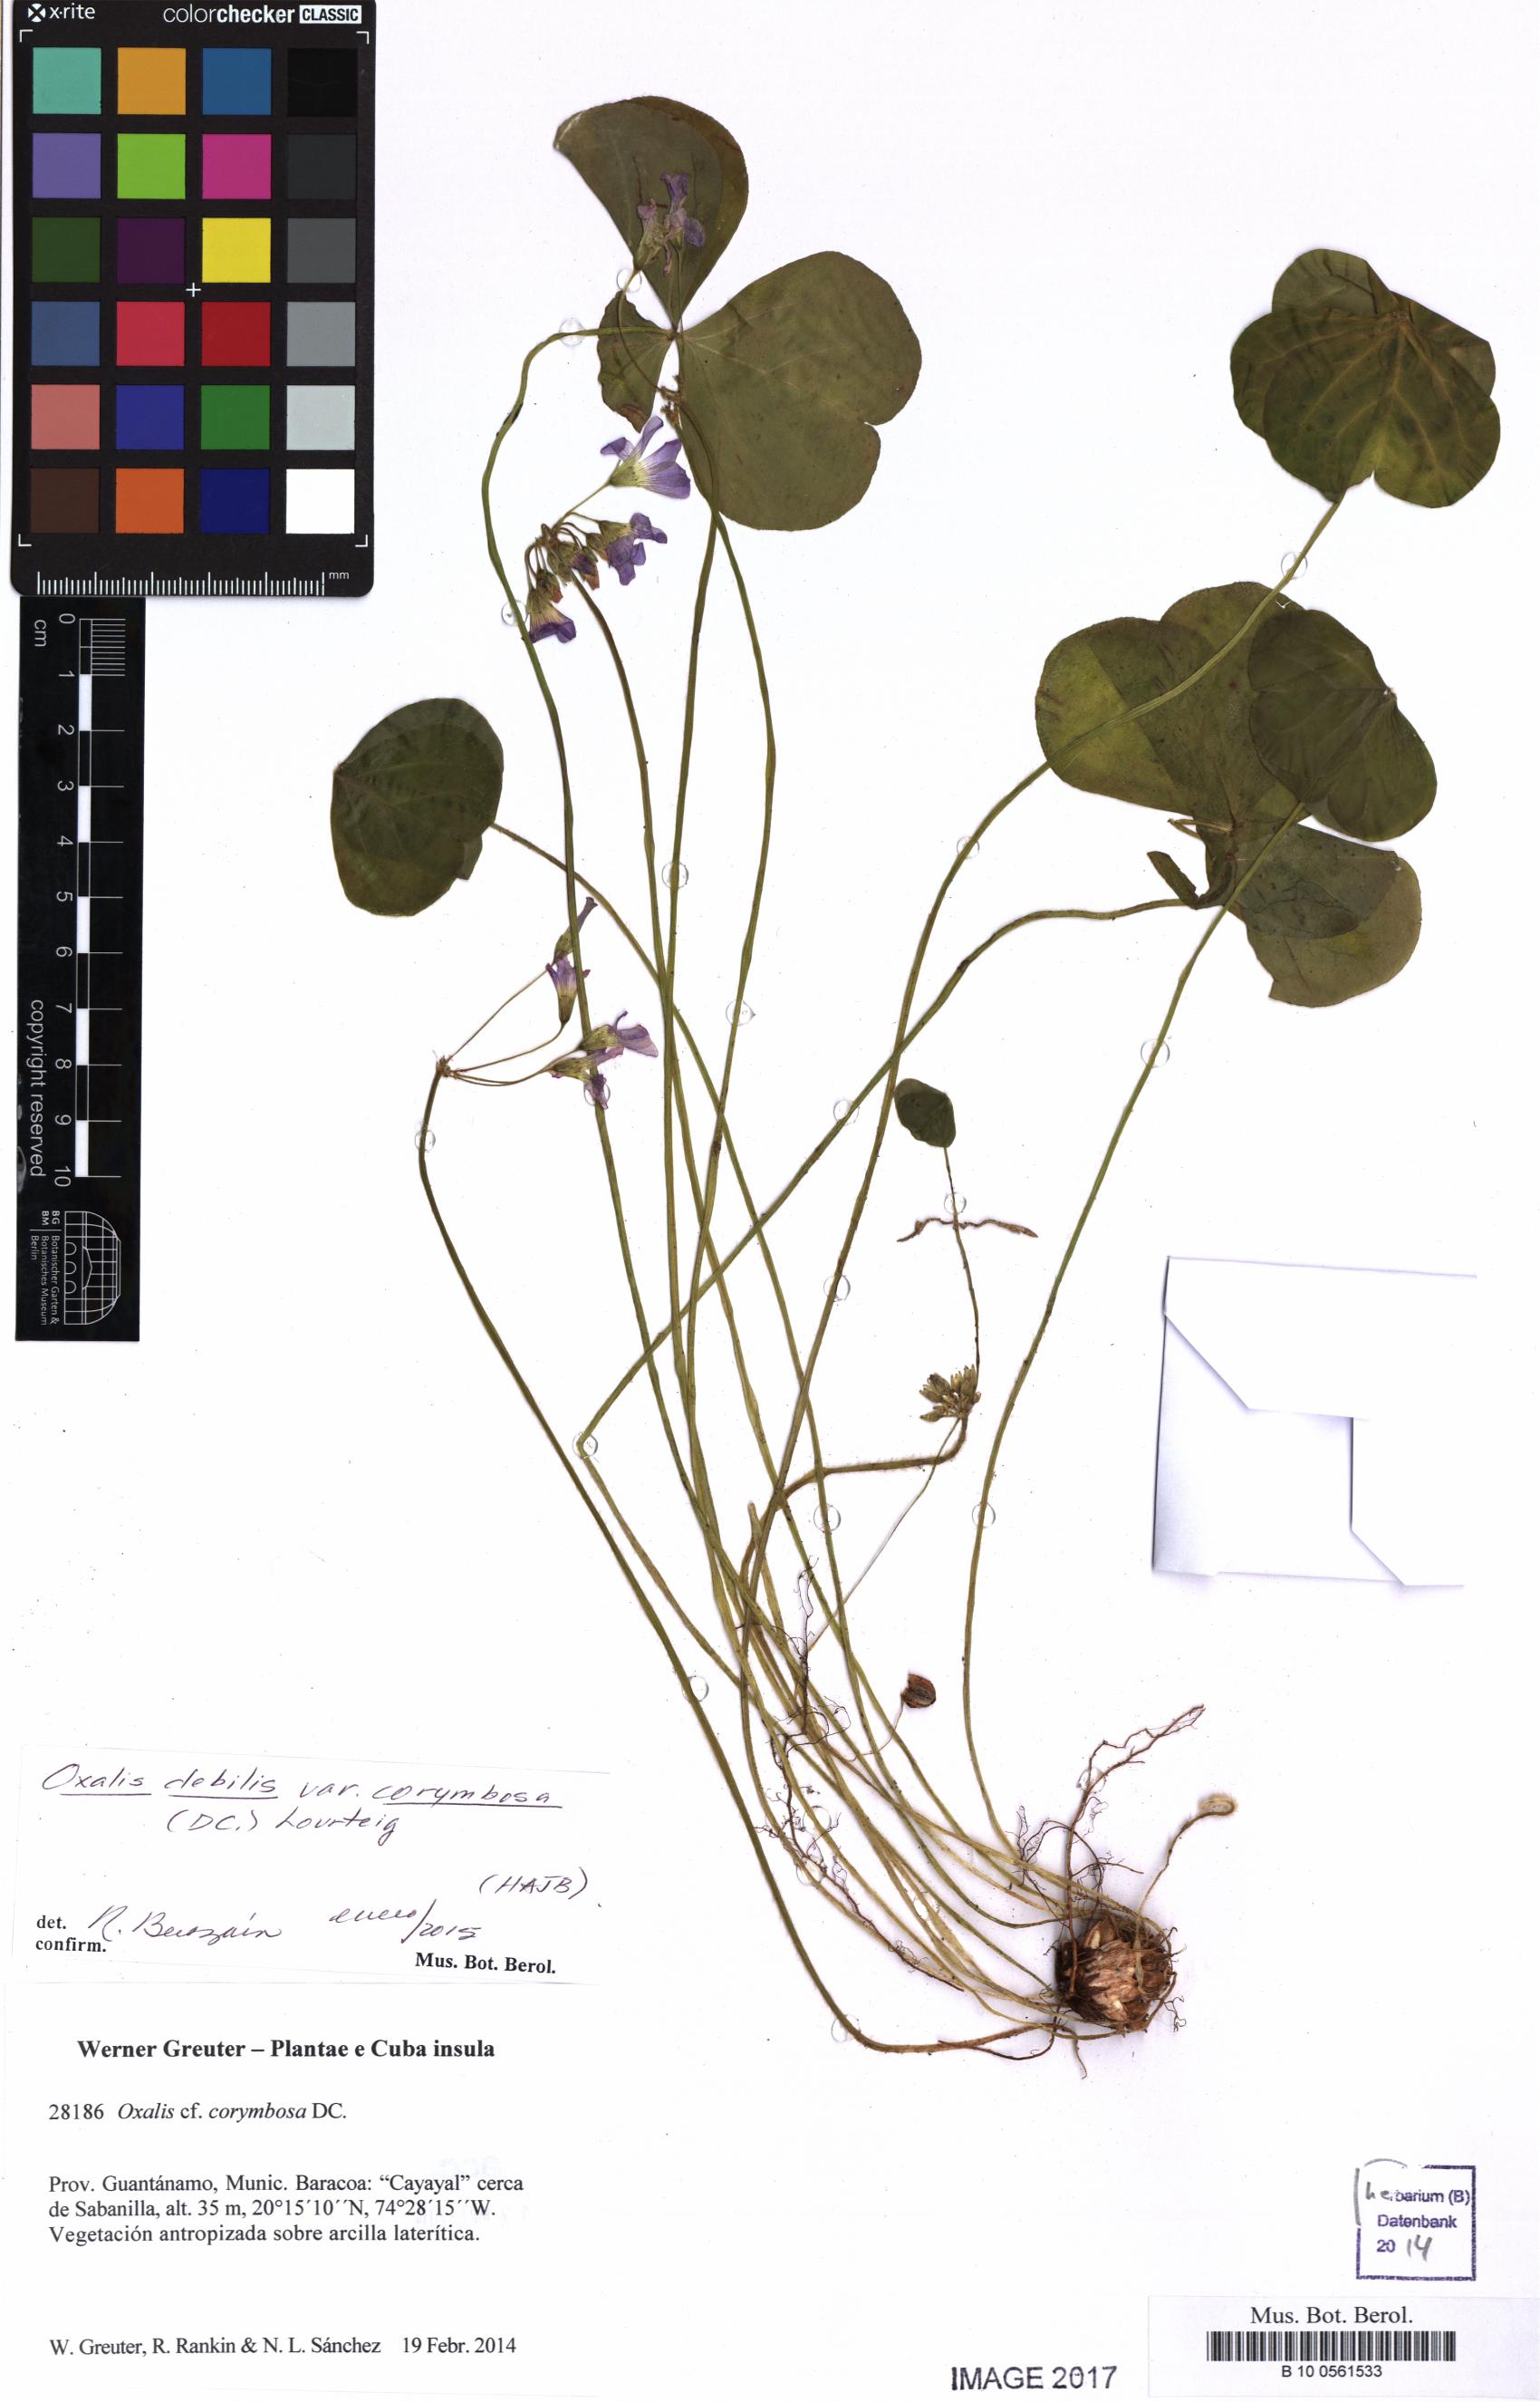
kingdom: Plantae
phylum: Tracheophyta
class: Magnoliopsida
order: Oxalidales
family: Oxalidaceae
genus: Oxalis
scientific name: Oxalis debilis
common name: Large-flowered pink-sorrel
